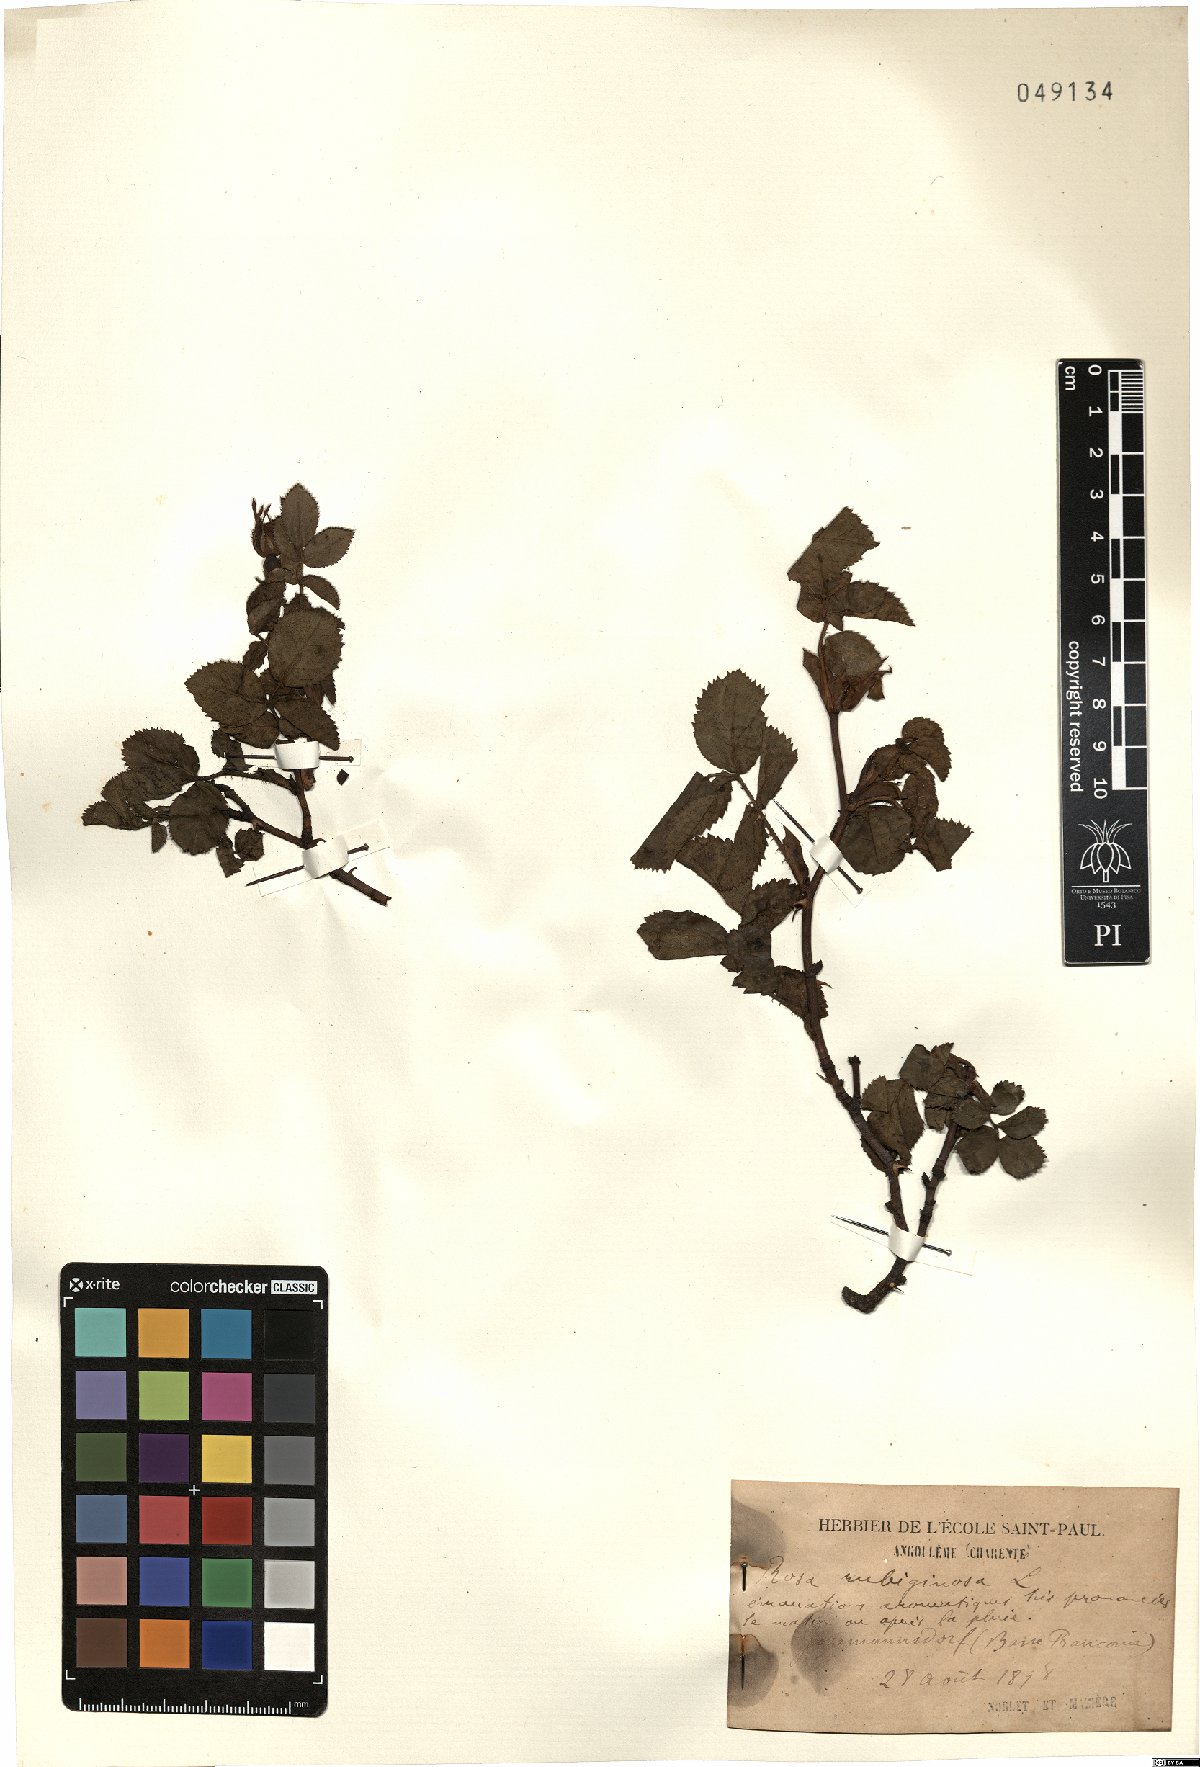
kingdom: Plantae
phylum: Tracheophyta
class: Magnoliopsida
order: Rosales
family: Rosaceae
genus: Rosa
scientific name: Rosa rubiginosa
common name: Sweet-briar
